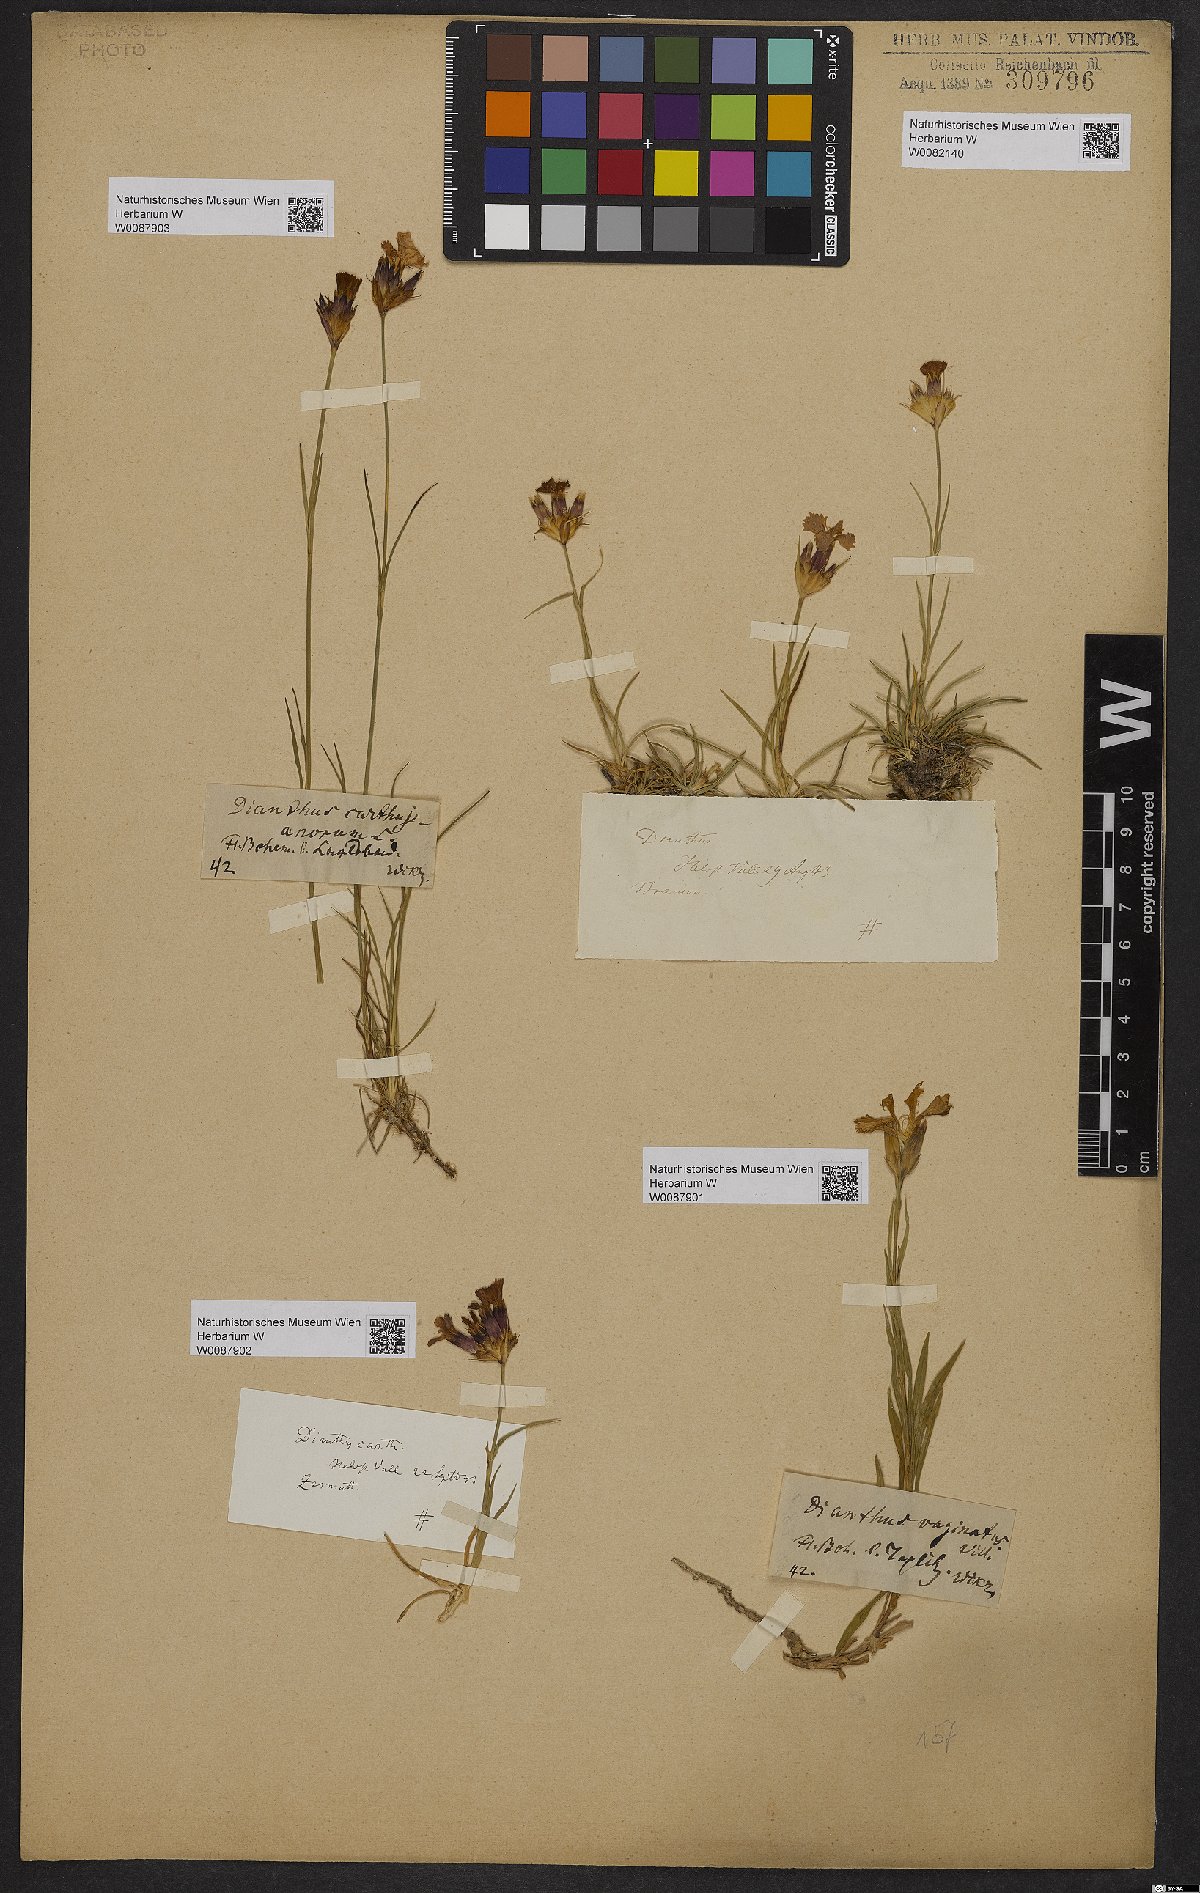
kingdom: Plantae
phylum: Tracheophyta
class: Magnoliopsida
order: Caryophyllales
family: Caryophyllaceae
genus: Dianthus
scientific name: Dianthus carthusianorum
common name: Carthusian pink
